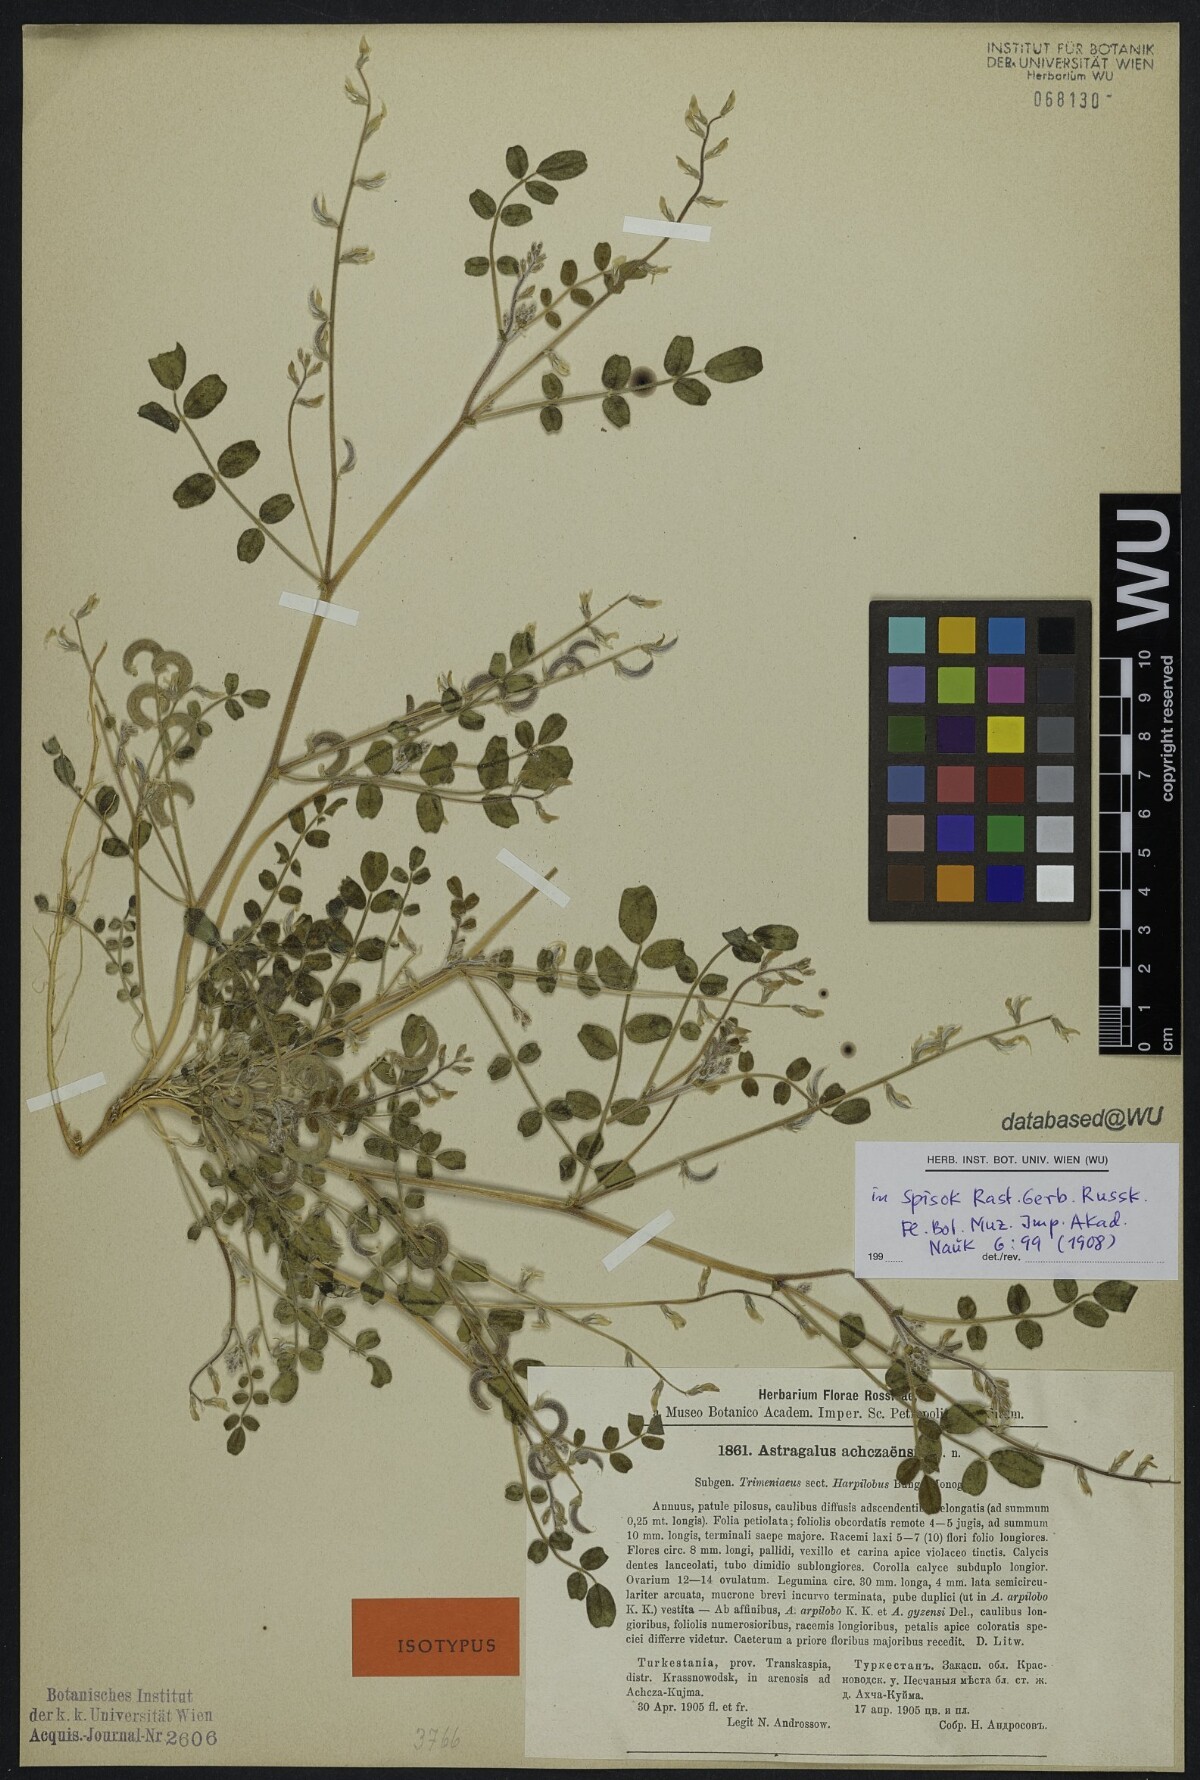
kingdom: Plantae
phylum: Tracheophyta
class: Magnoliopsida
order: Fabales
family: Fabaceae
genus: Astragalus
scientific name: Astragalus arpilobus
